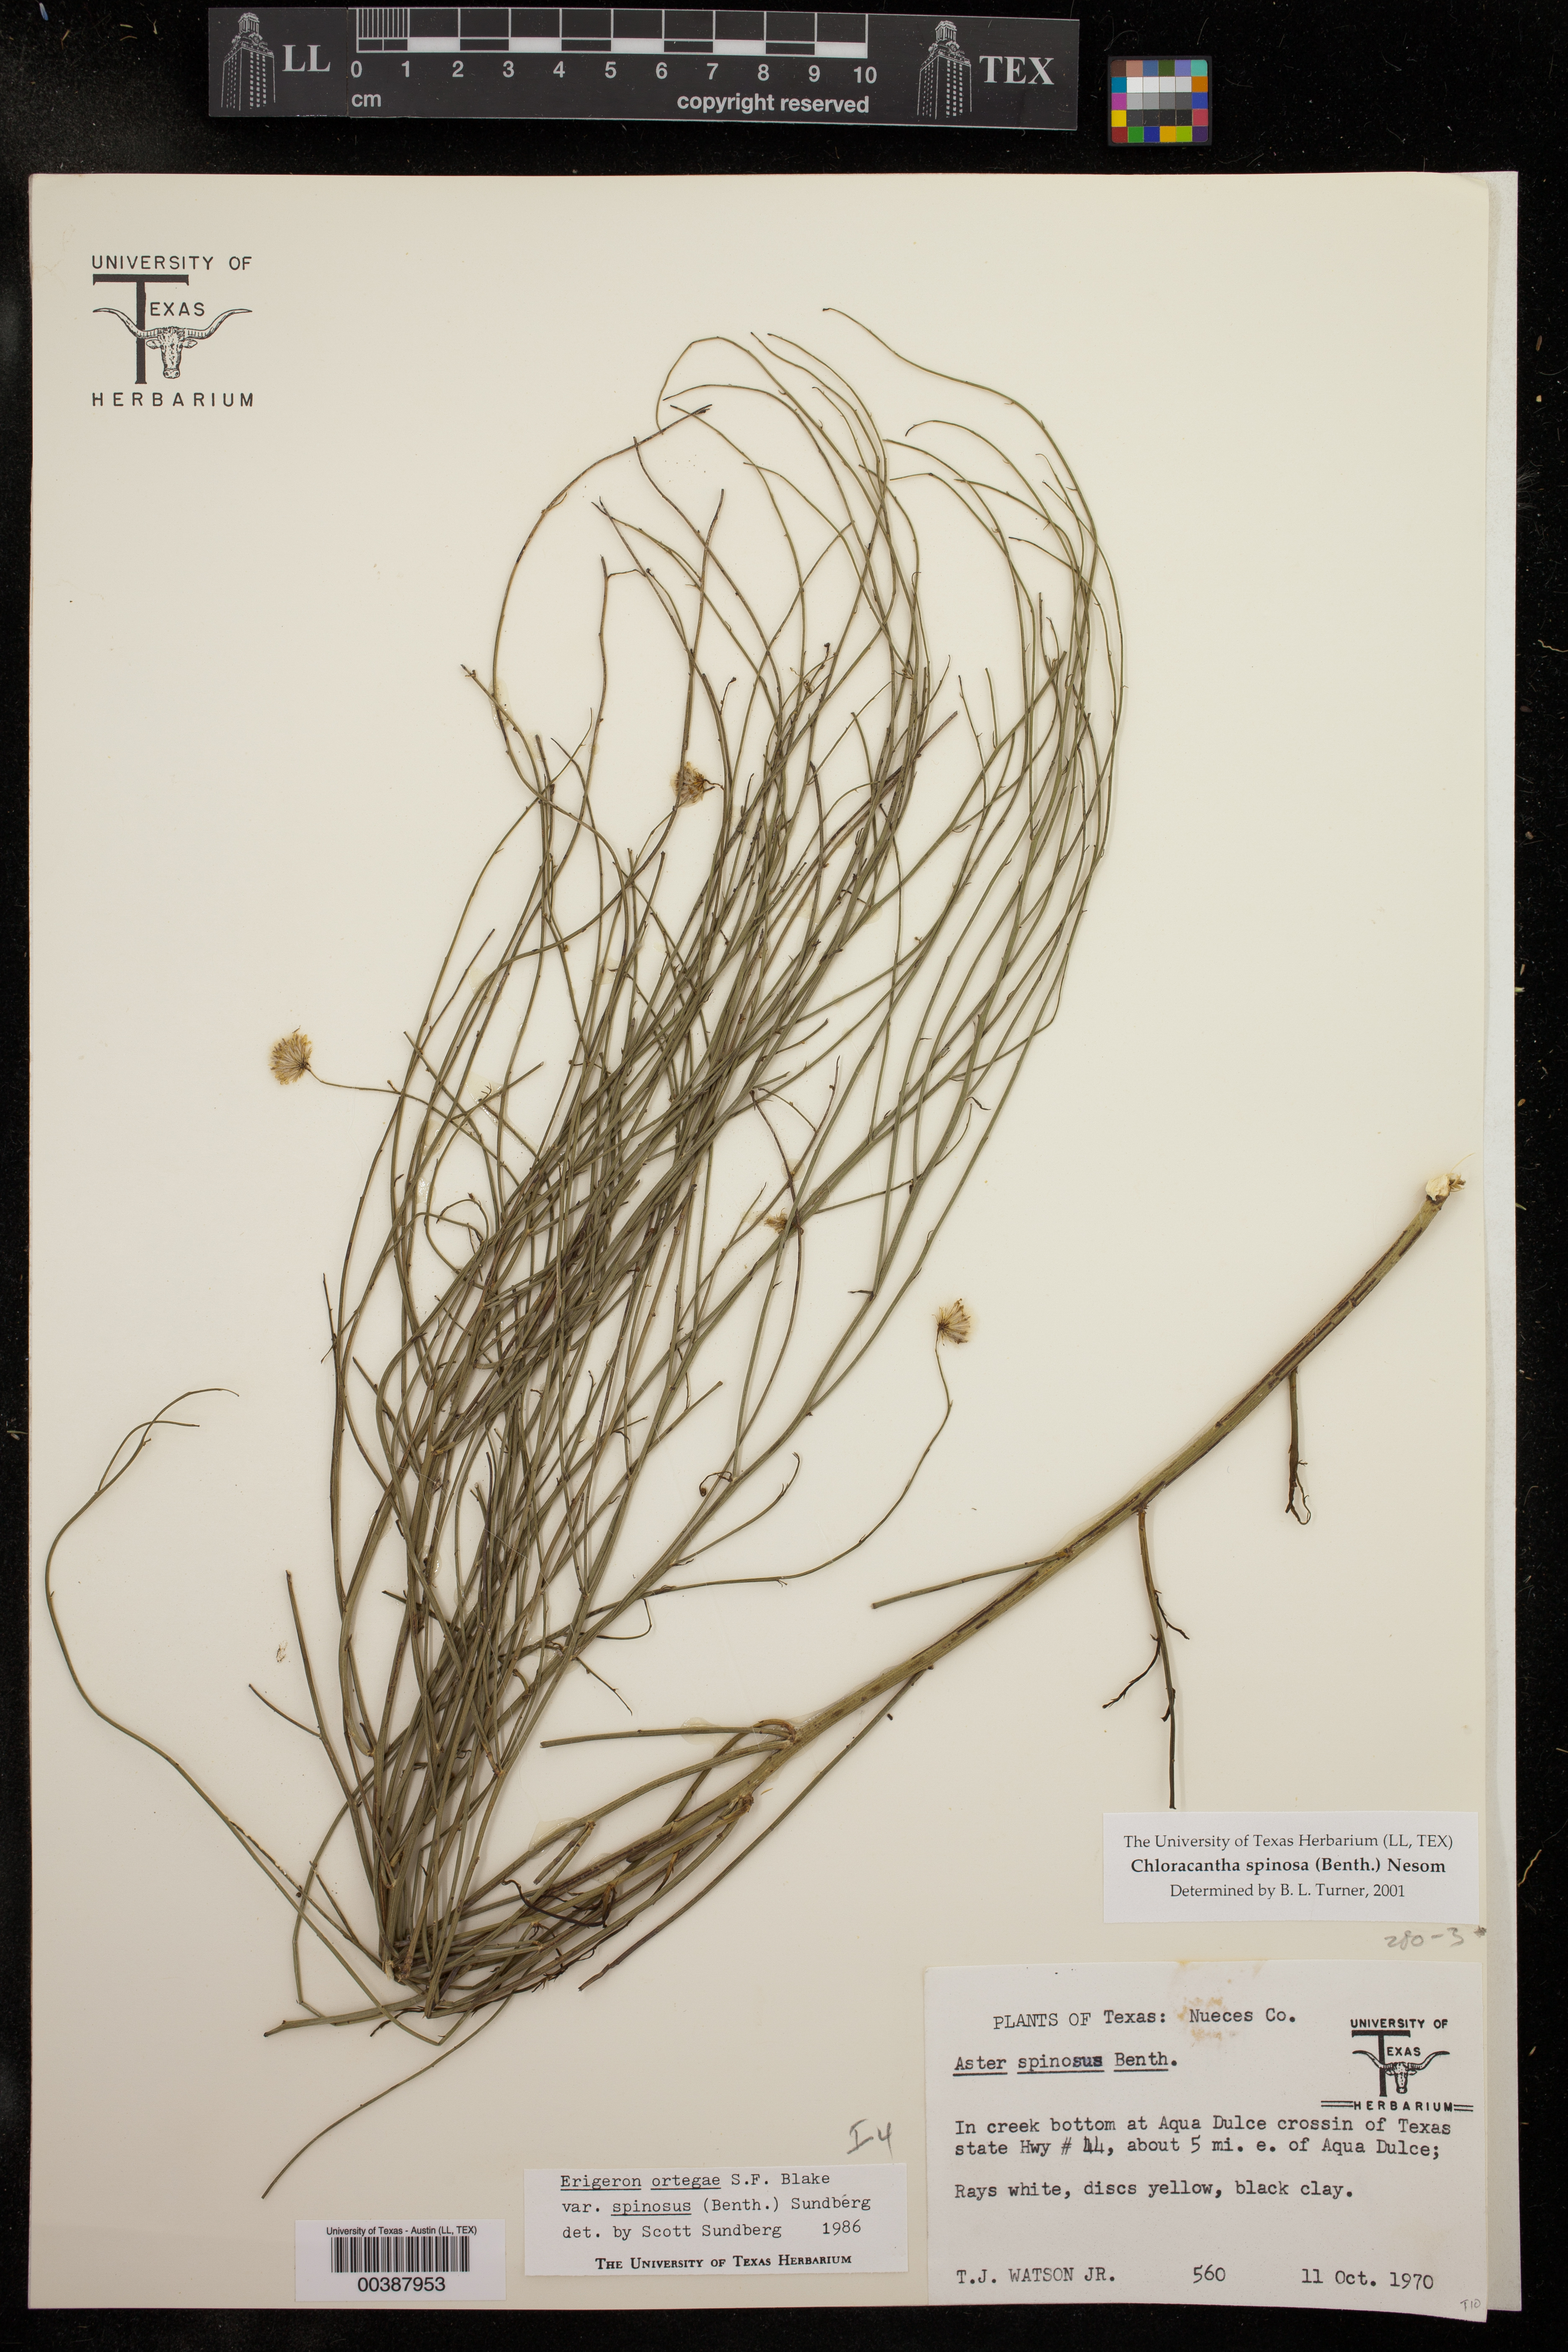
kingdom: Plantae
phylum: Tracheophyta
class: Magnoliopsida
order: Asterales
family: Asteraceae
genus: Chloracantha
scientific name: Chloracantha spinosa
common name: Mexican devilweed
